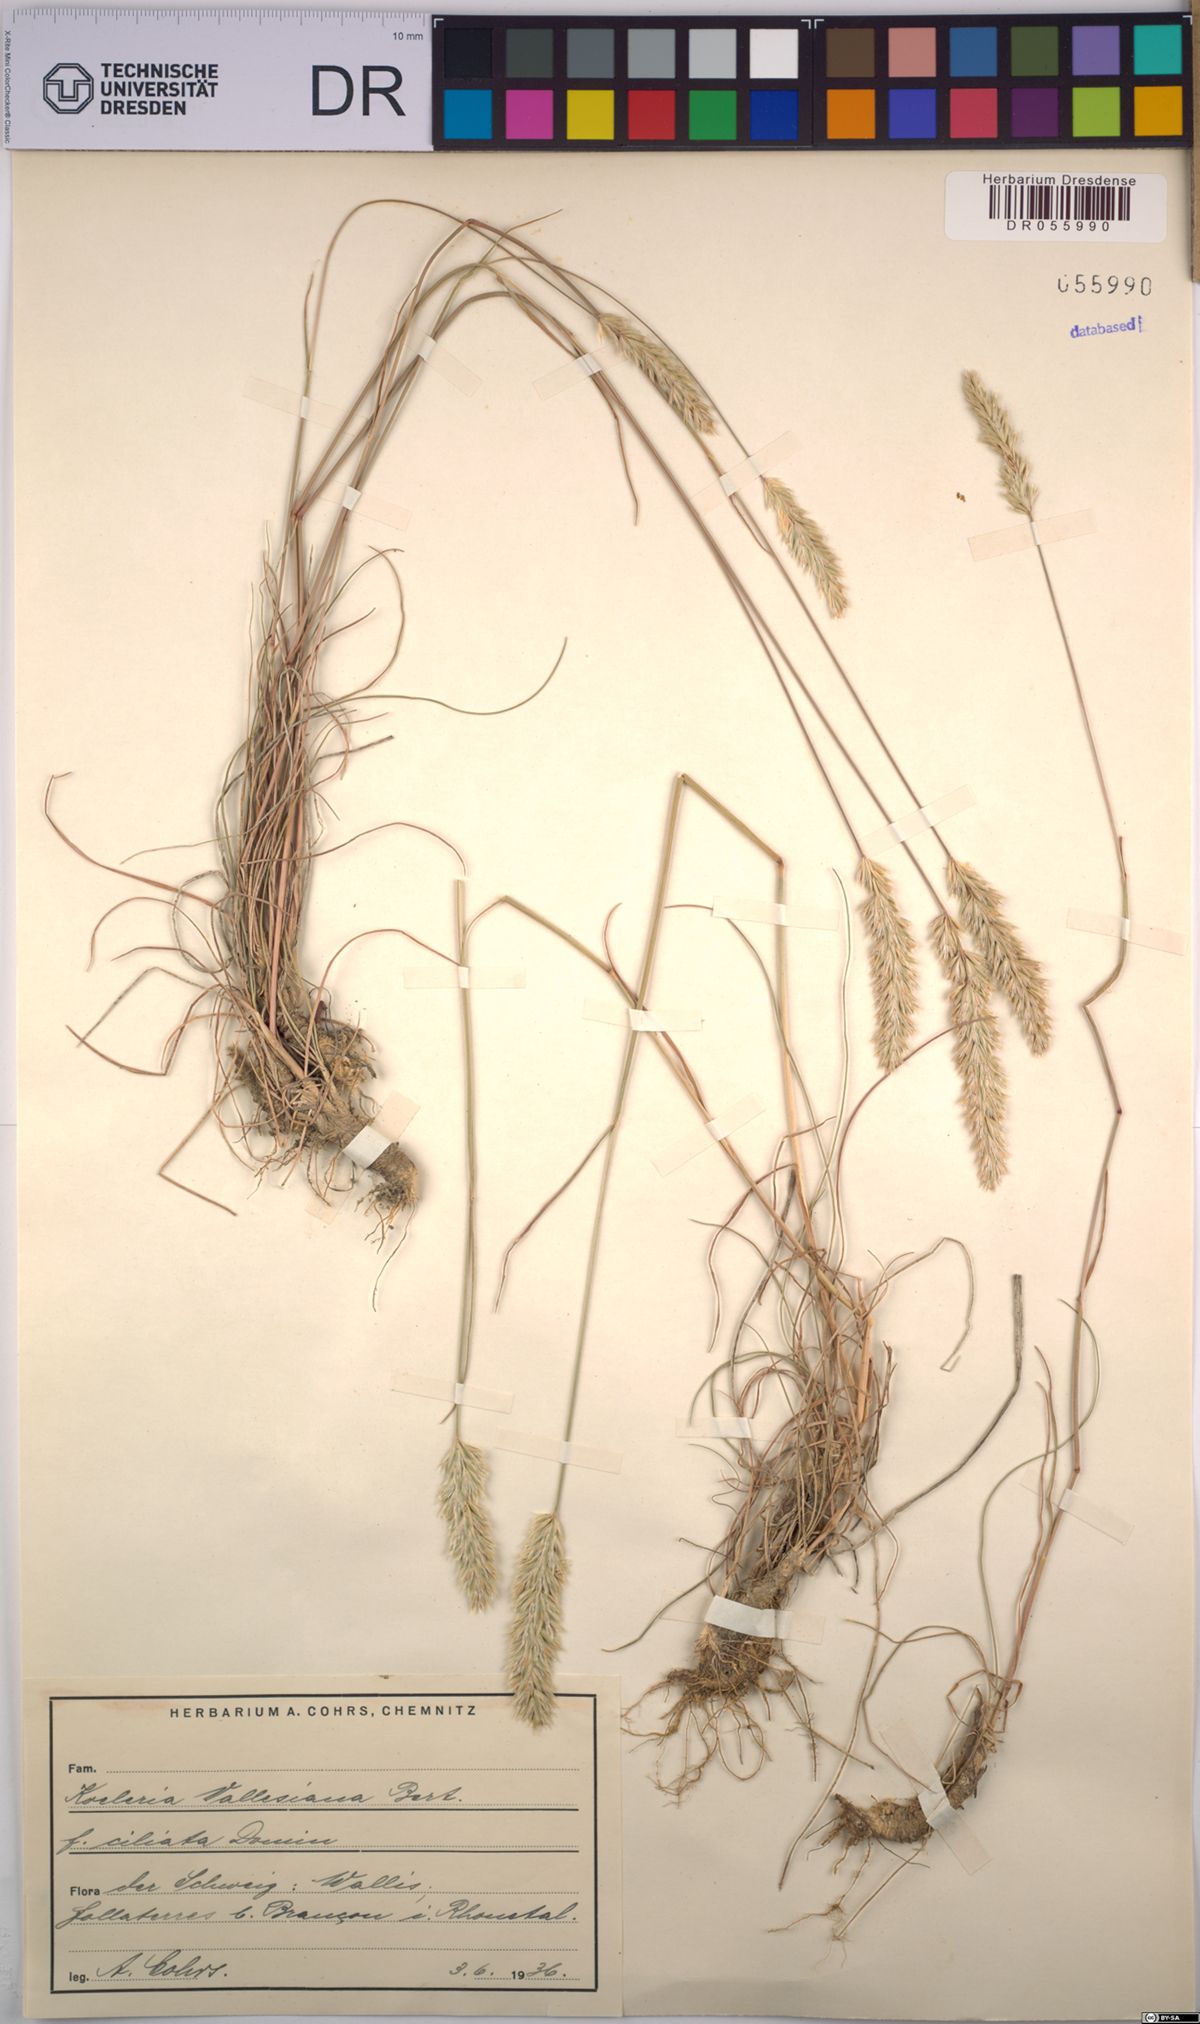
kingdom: Plantae
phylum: Tracheophyta
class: Liliopsida
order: Poales
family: Poaceae
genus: Koeleria
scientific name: Koeleria vallesiana
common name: Somerset hair-grass
